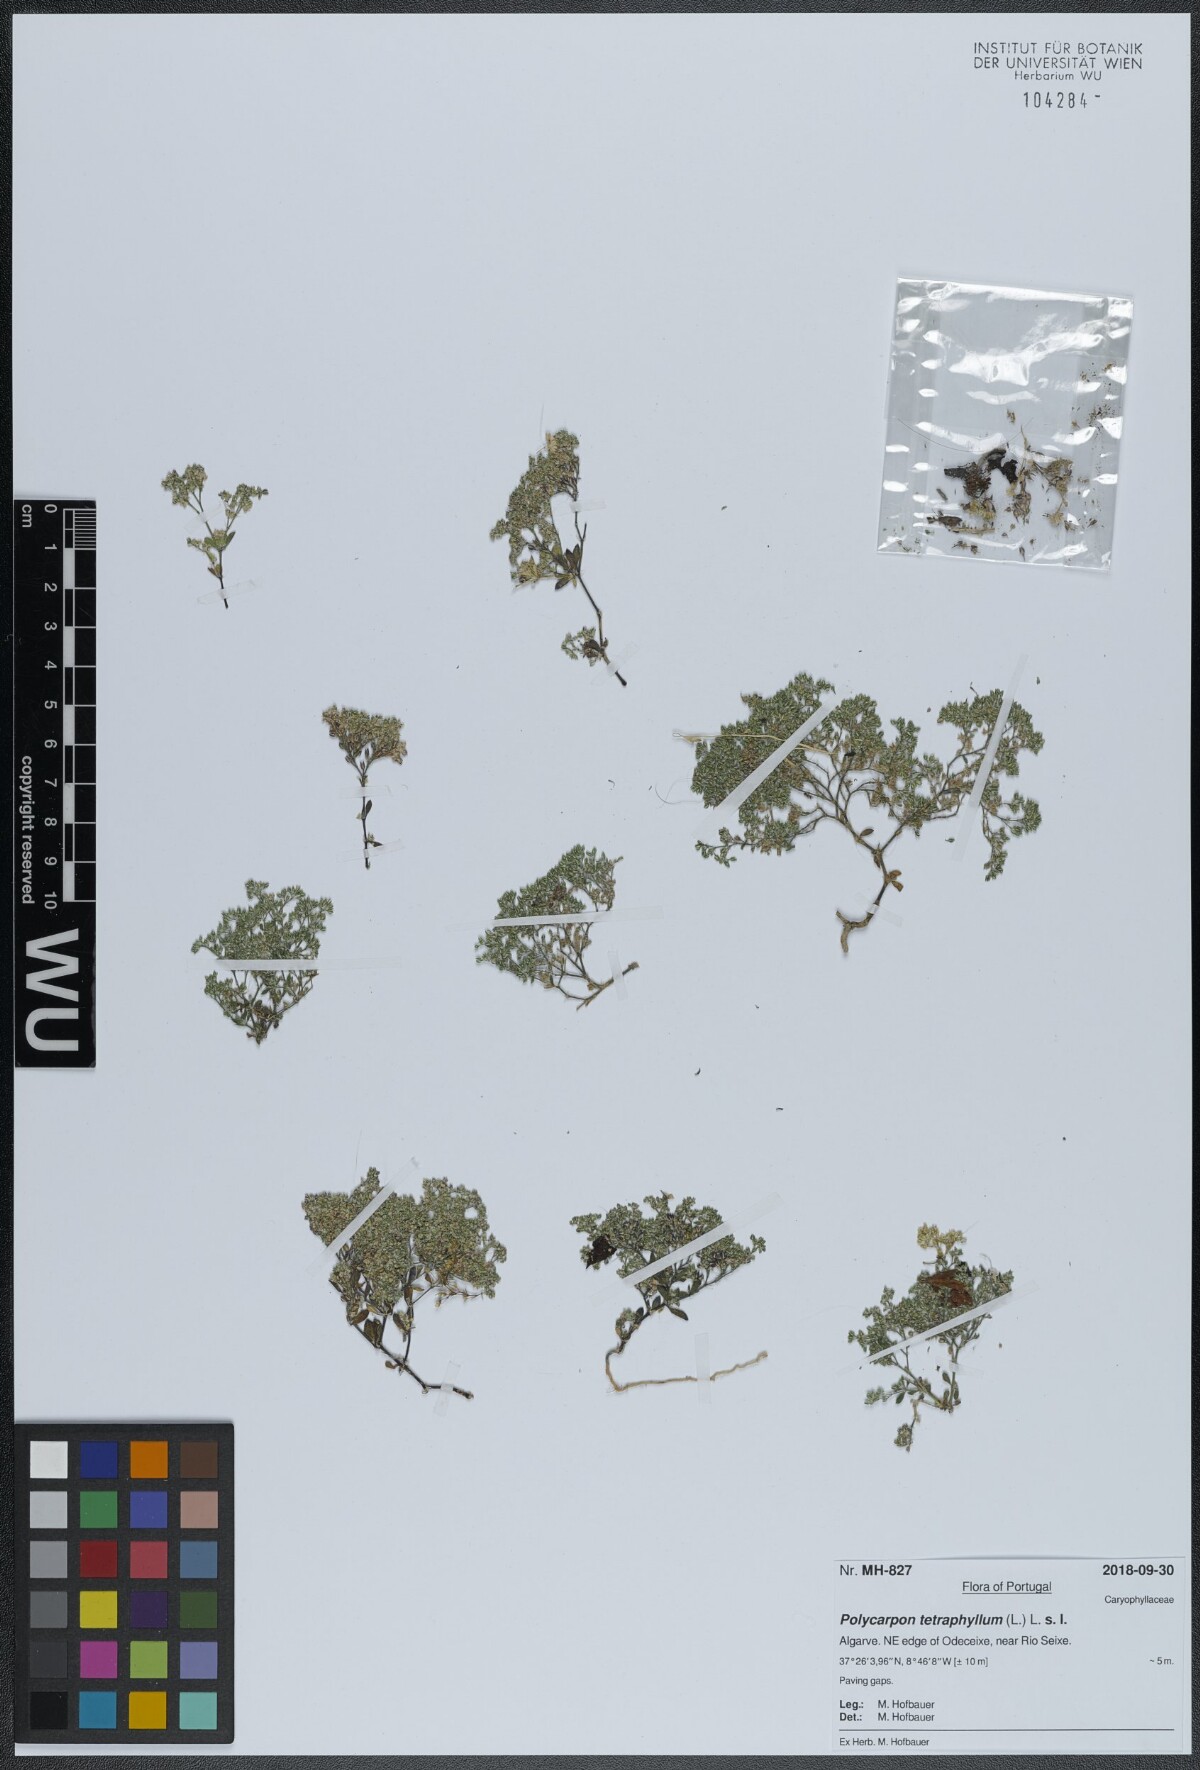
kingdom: Plantae
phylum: Tracheophyta
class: Magnoliopsida
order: Caryophyllales
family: Caryophyllaceae
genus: Polycarpon
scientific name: Polycarpon tetraphyllum
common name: Four-leaved all-seed
